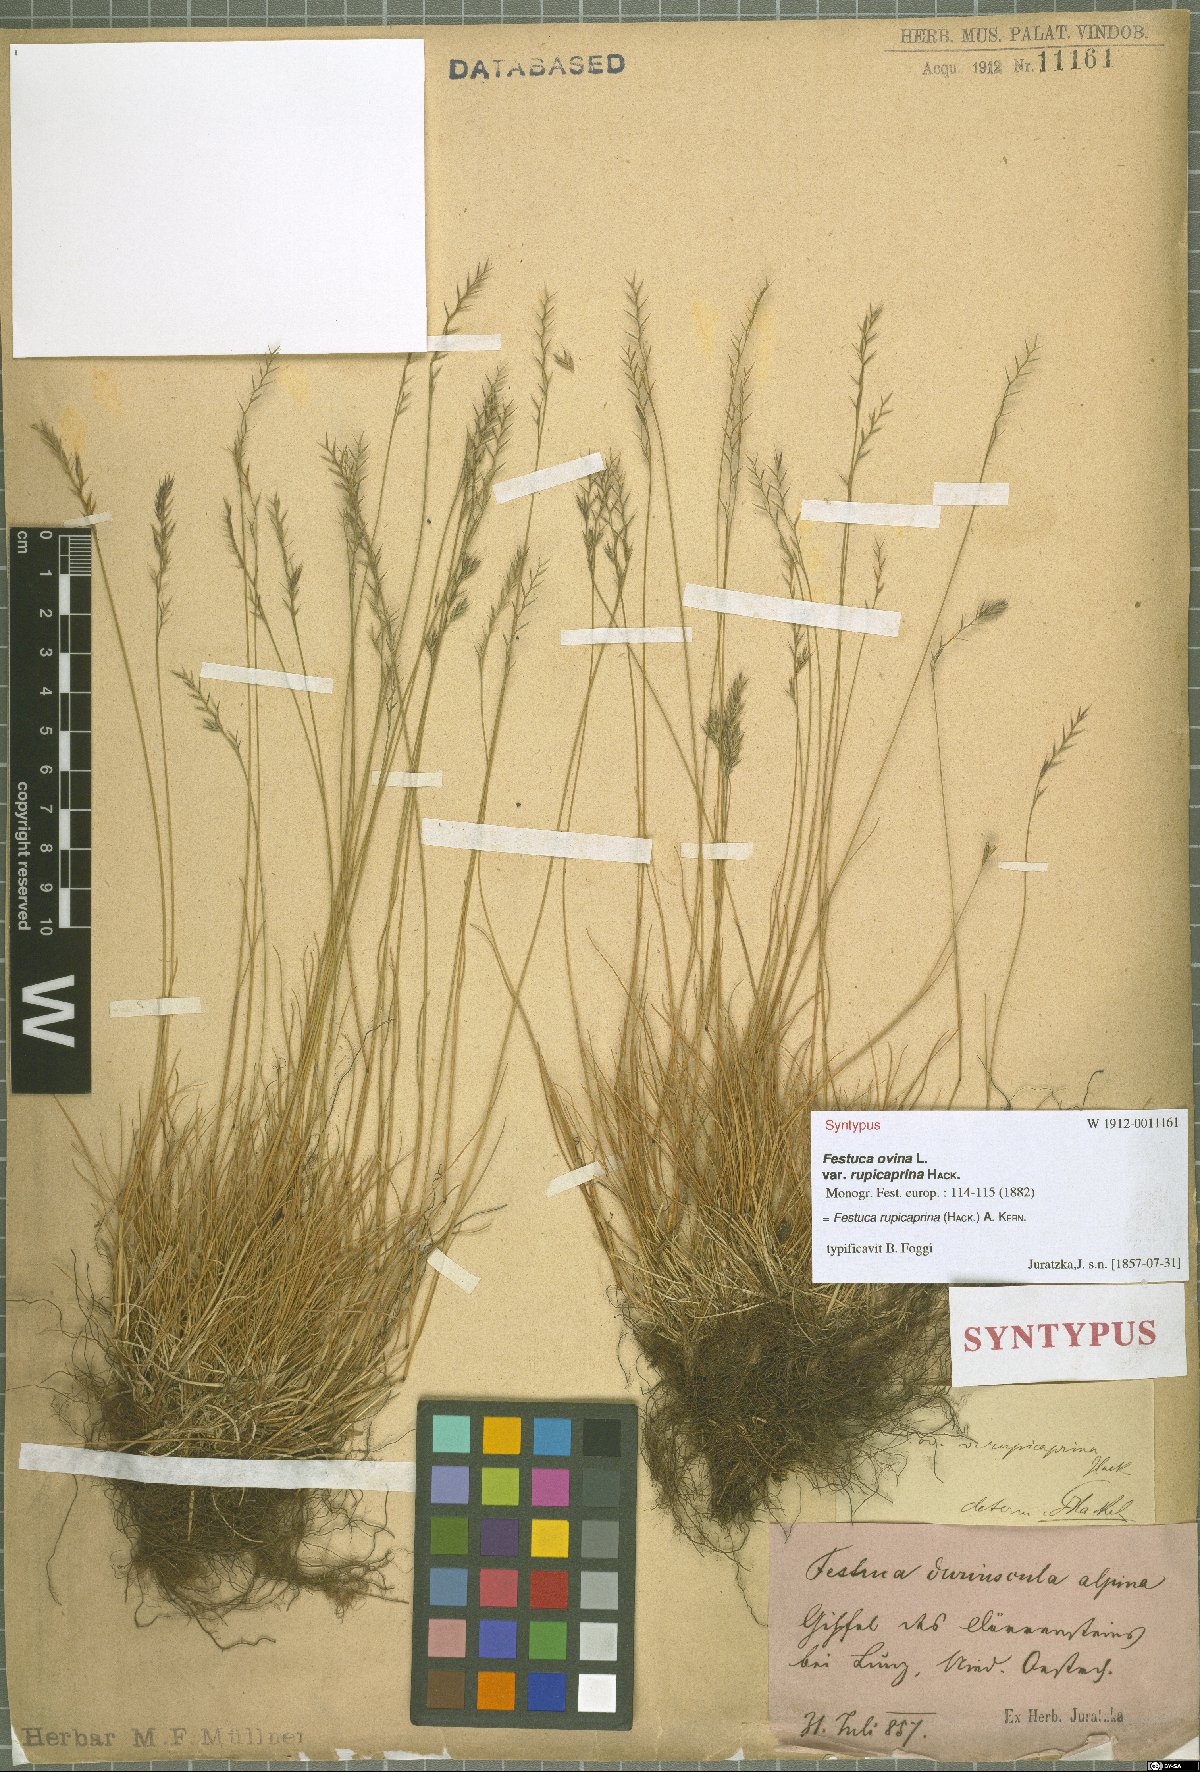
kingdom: Plantae
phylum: Tracheophyta
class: Liliopsida
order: Poales
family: Poaceae
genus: Festuca
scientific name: Festuca rupicaprina
